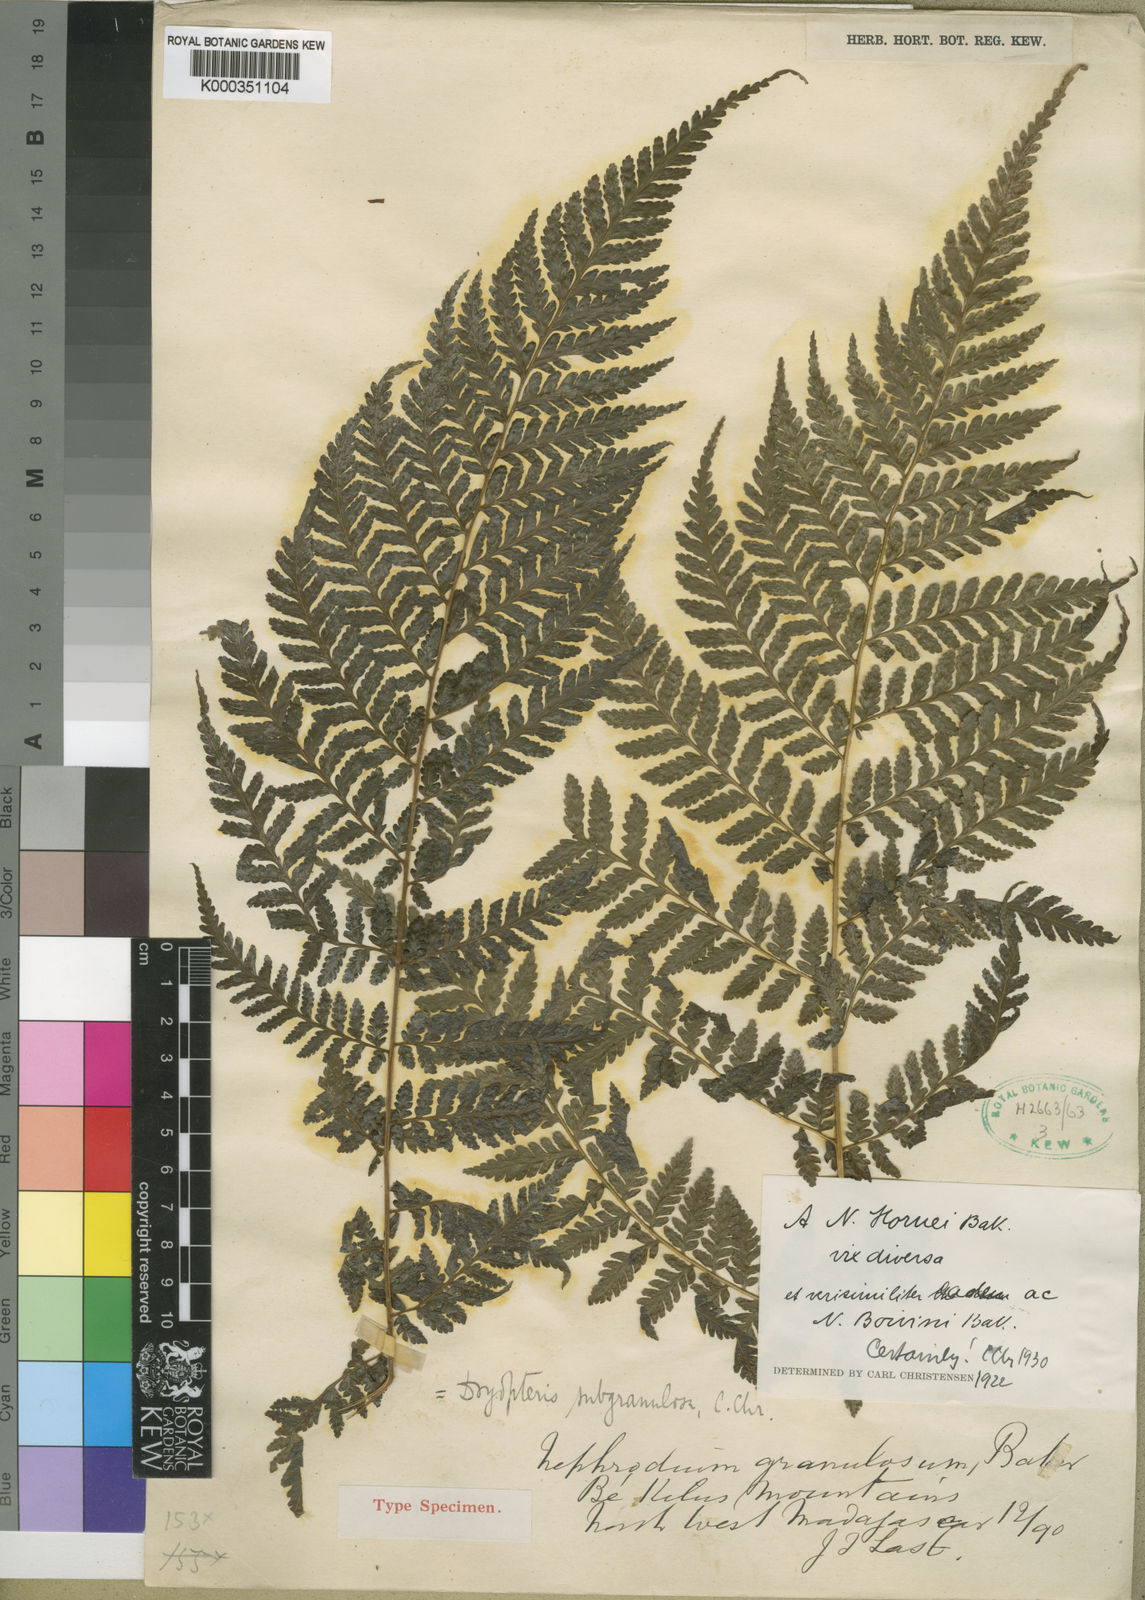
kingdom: Plantae
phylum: Tracheophyta
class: Polypodiopsida
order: Polypodiales
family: Dryopteridaceae
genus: Parapolystichum
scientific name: Parapolystichum boivinii
